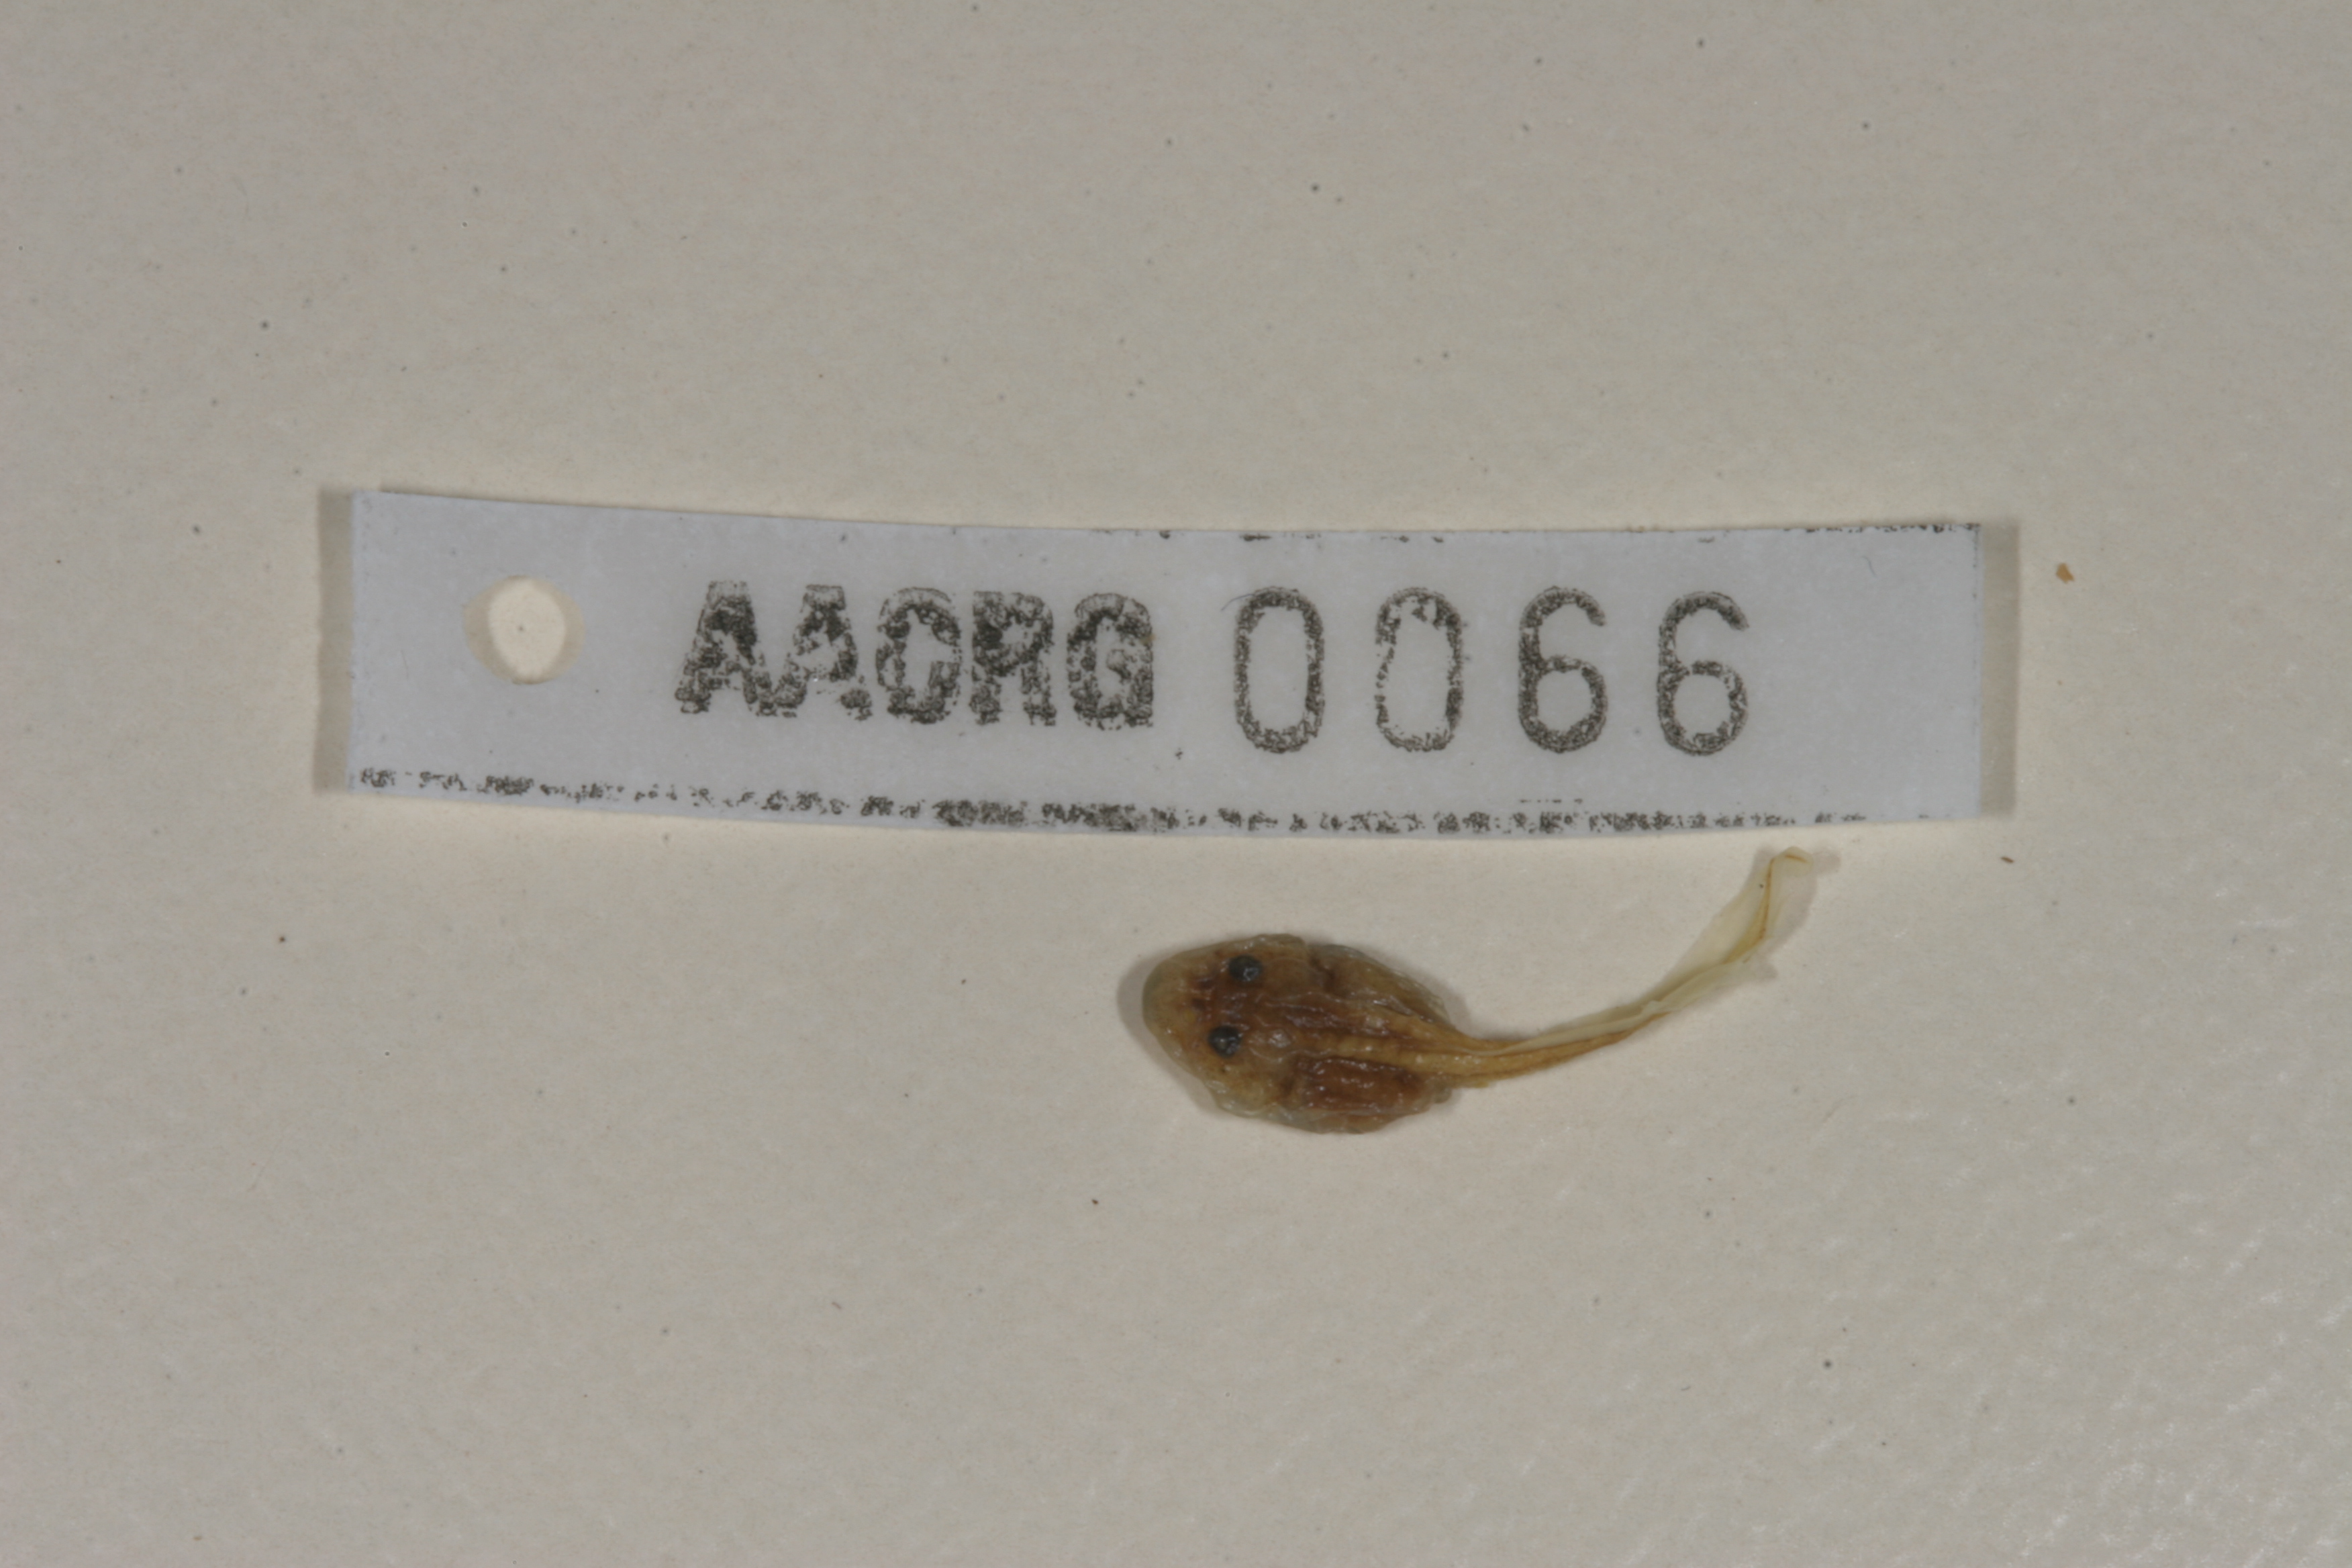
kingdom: Animalia
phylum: Chordata
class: Amphibia
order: Anura
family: Bufonidae
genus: Sclerophrys
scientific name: Sclerophrys capensis
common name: Ranger’s toad
